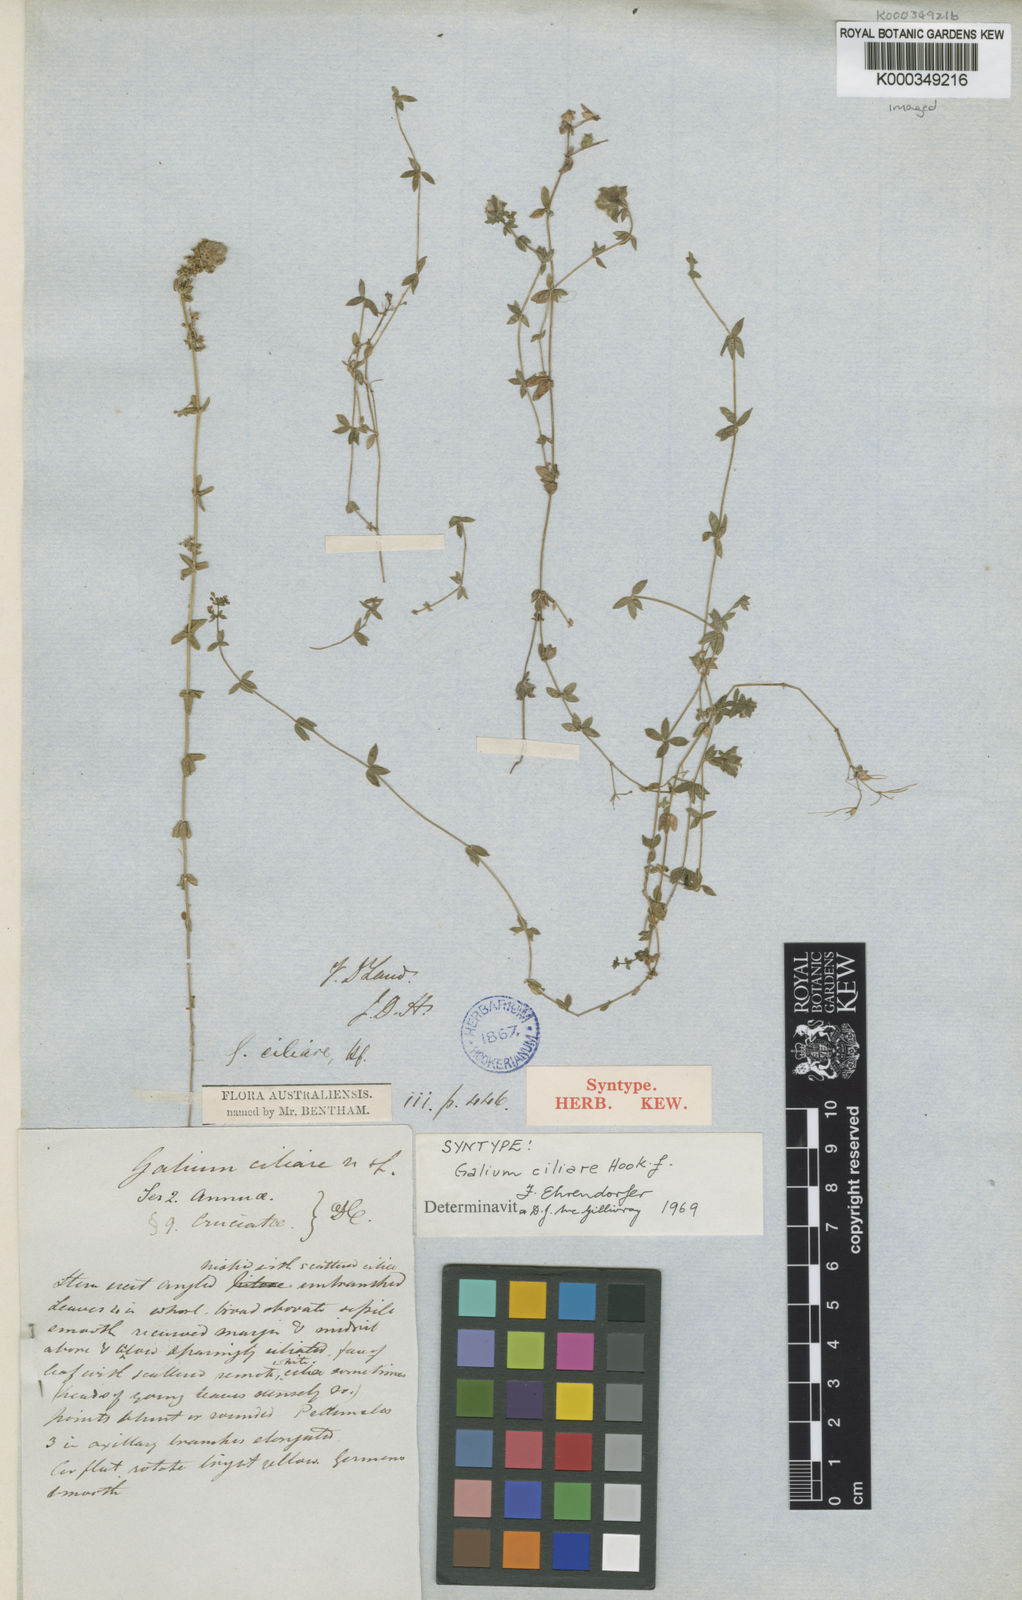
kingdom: Plantae
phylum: Tracheophyta
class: Magnoliopsida
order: Gentianales
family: Rubiaceae
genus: Galium
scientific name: Galium ciliare
